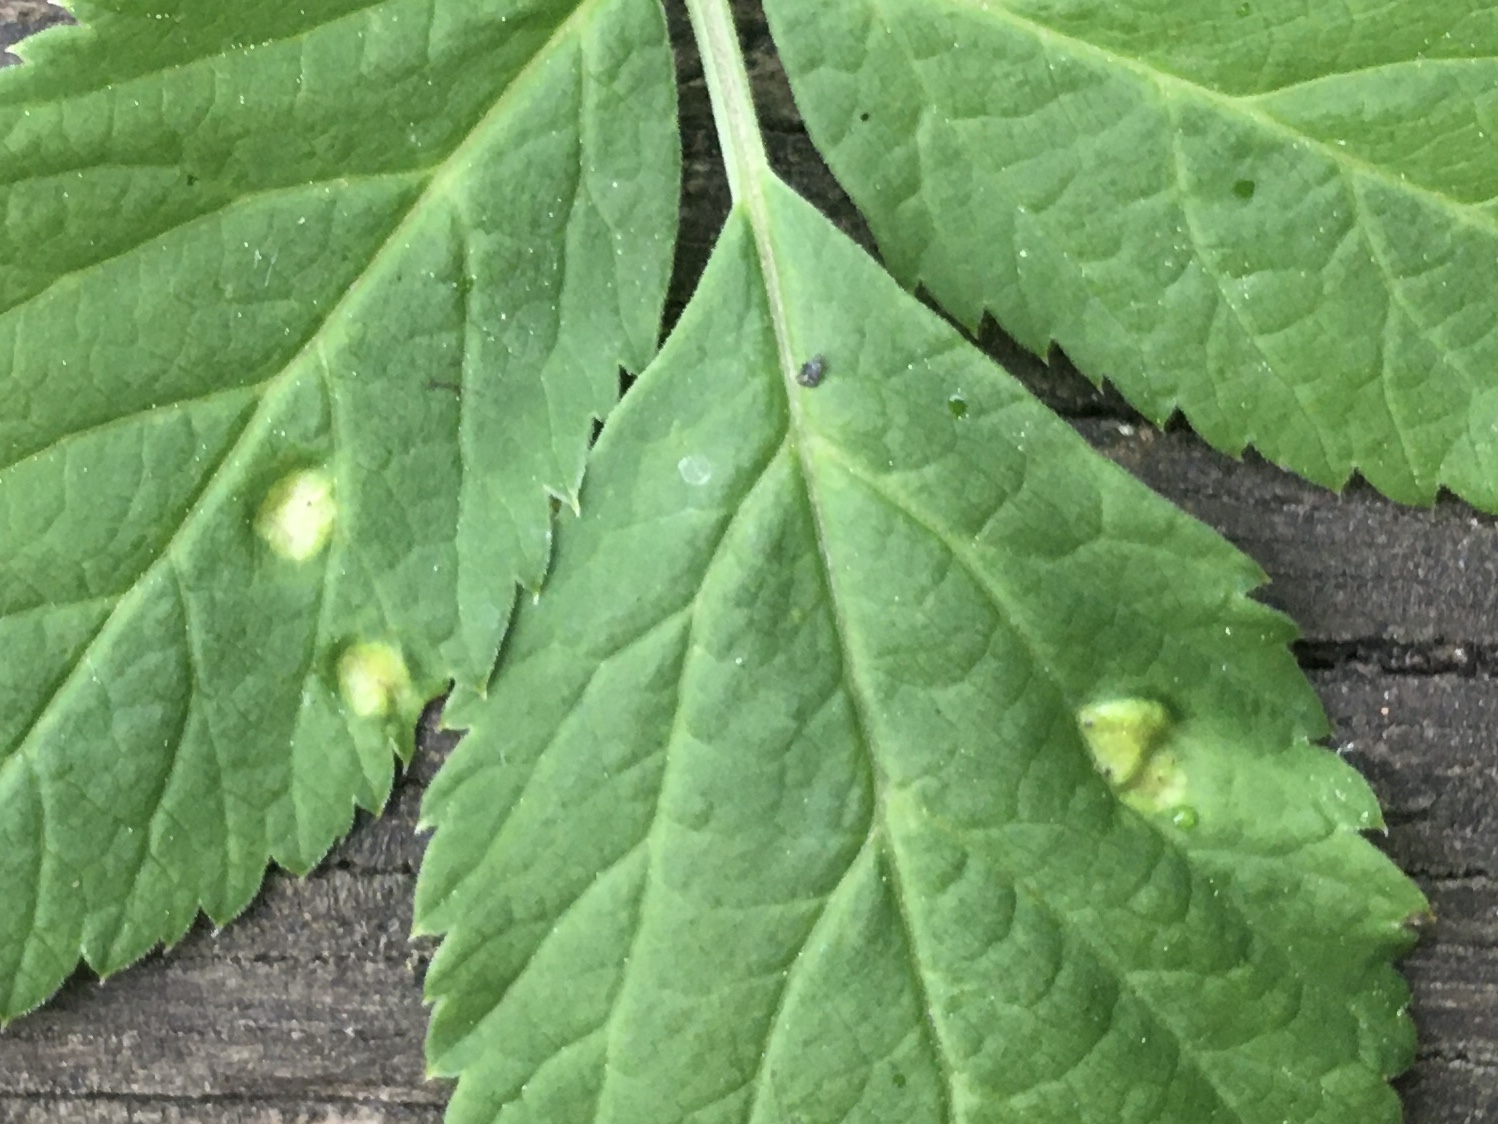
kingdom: Fungi
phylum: Basidiomycota
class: Pucciniomycetes
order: Pucciniales
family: Pucciniaceae
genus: Puccinia
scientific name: Puccinia
